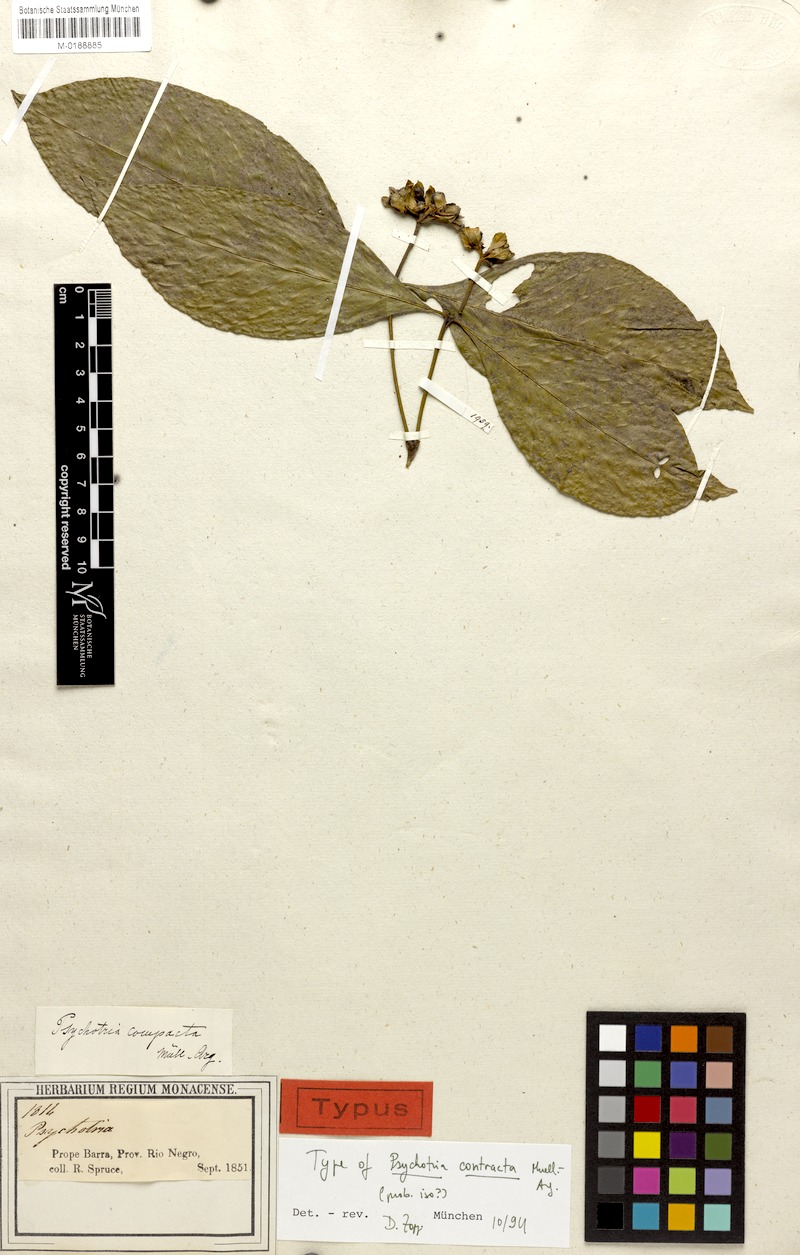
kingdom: Plantae
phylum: Tracheophyta
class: Magnoliopsida
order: Gentianales
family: Rubiaceae
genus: Palicourea
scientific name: Palicourea justiciifolia
